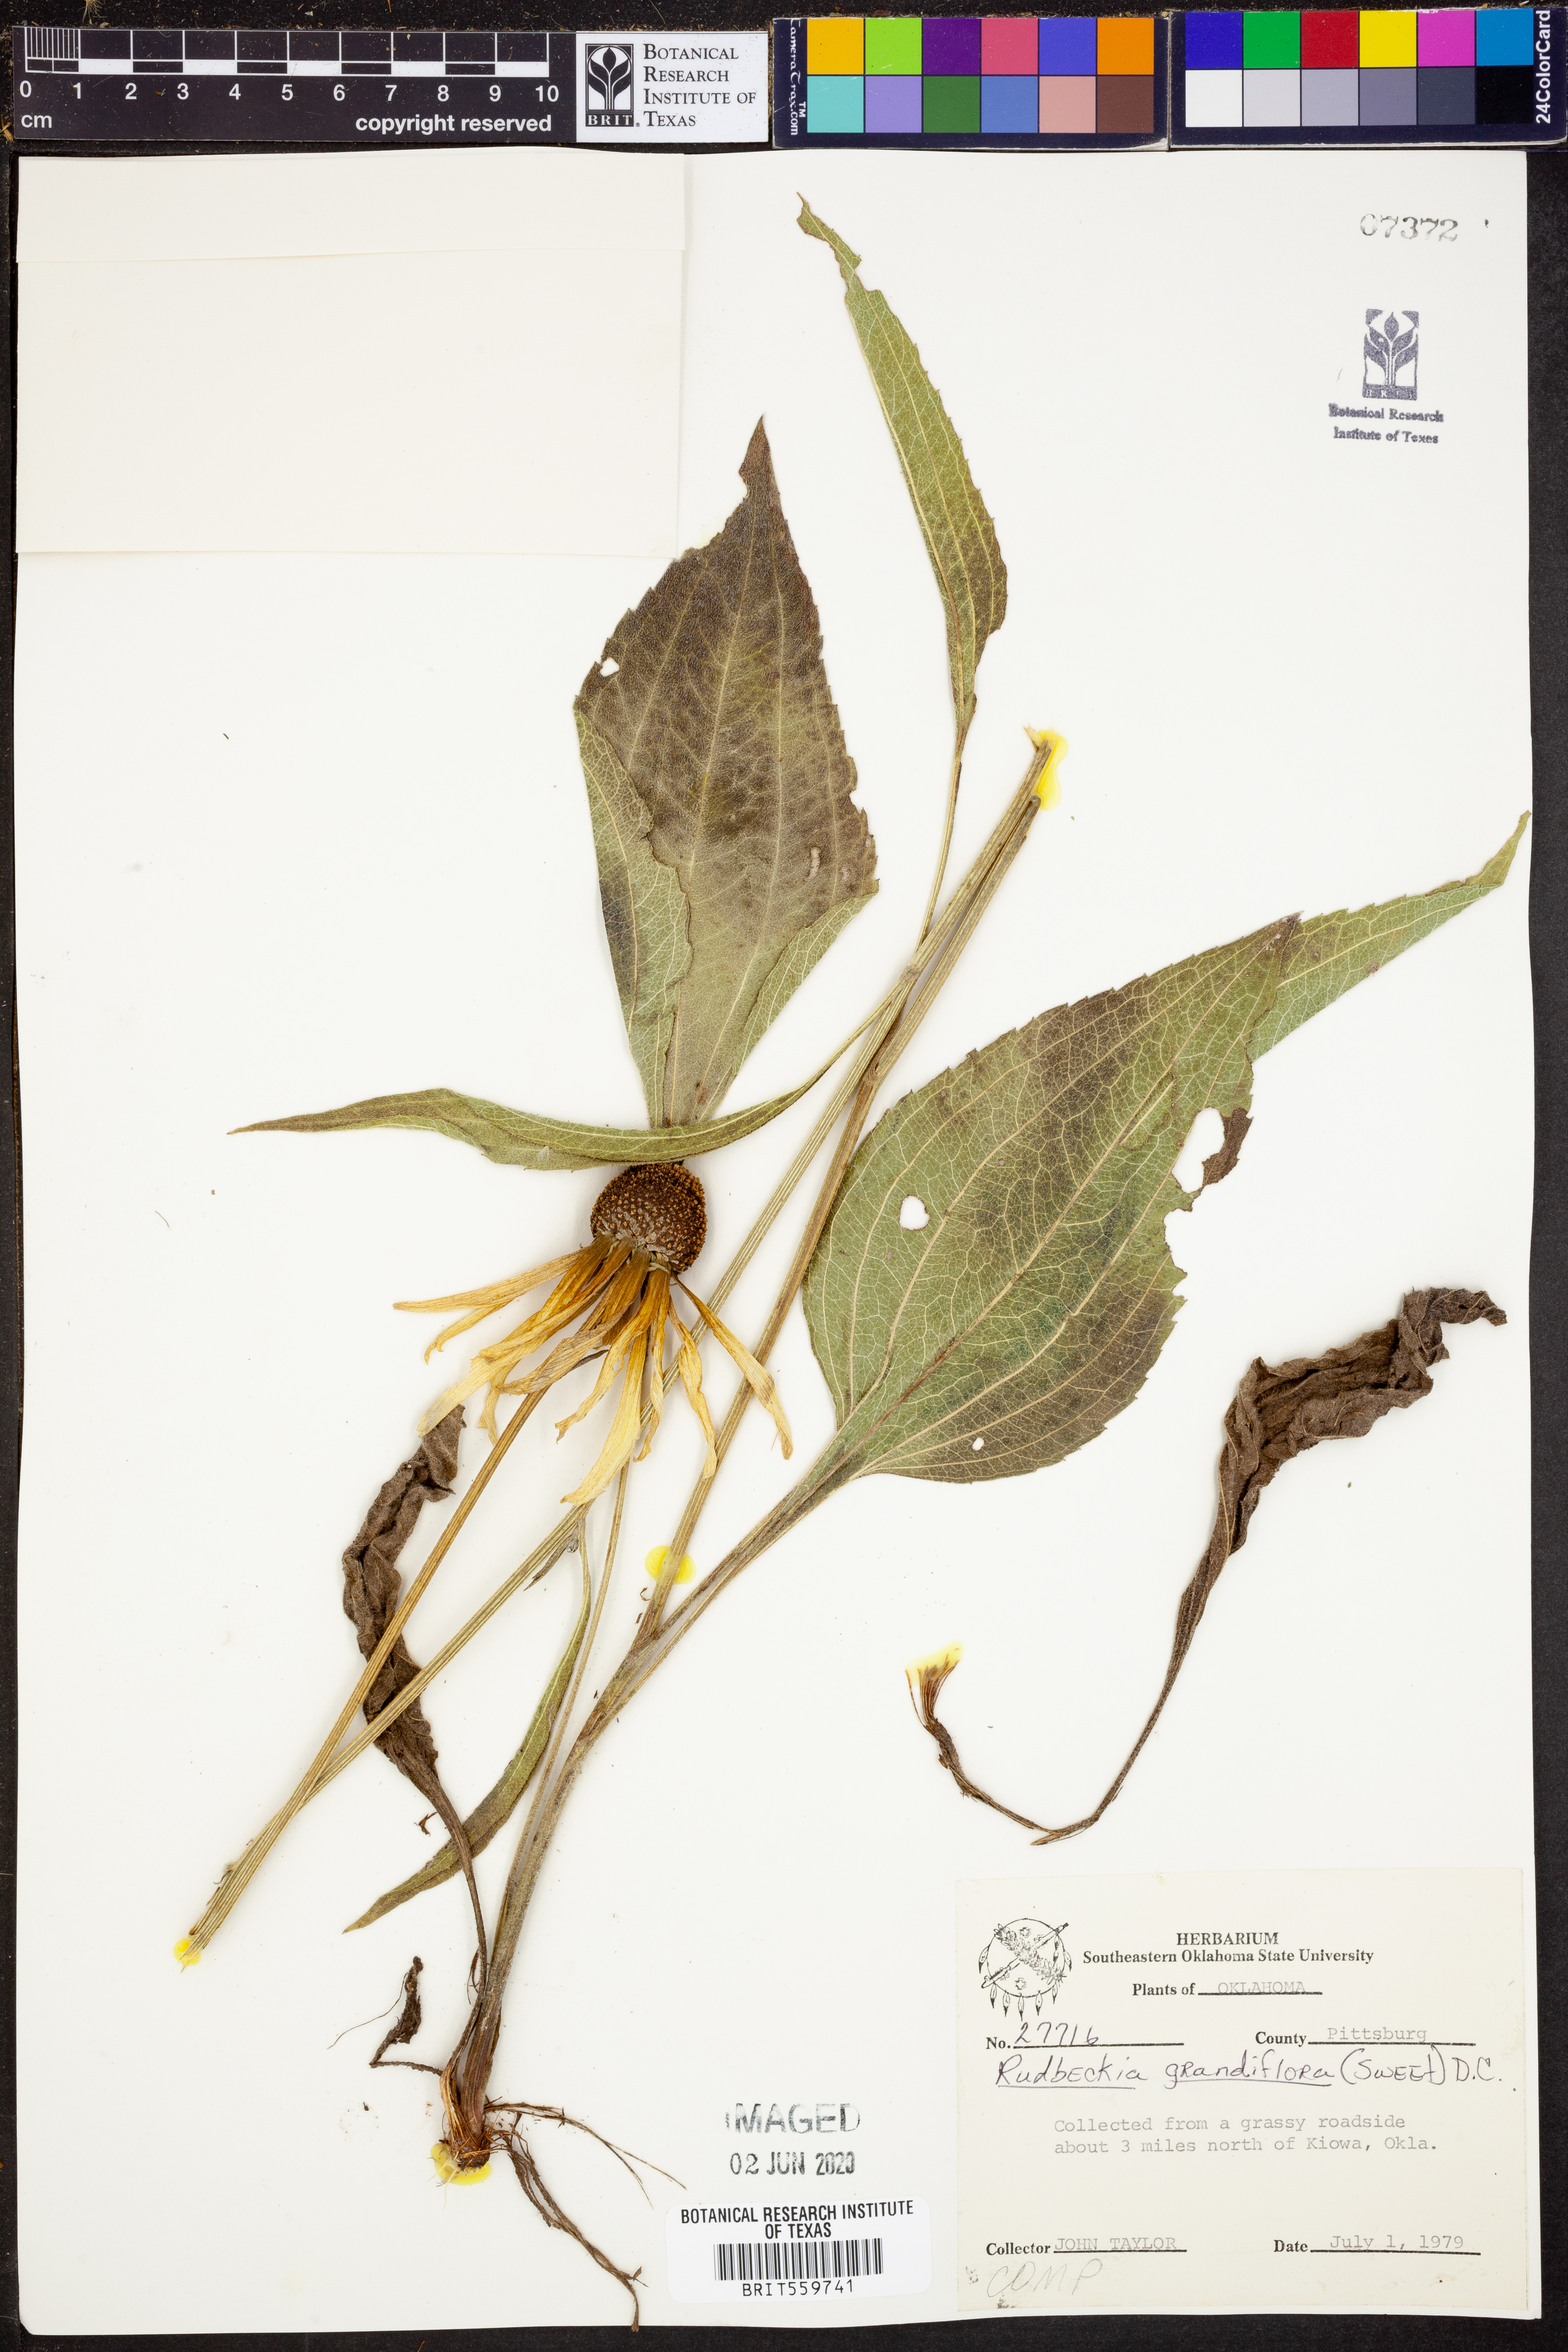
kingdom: Plantae
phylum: Tracheophyta
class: Magnoliopsida
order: Asterales
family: Asteraceae
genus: Rudbeckia
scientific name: Rudbeckia grandiflora
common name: Large-flowered coneflower
